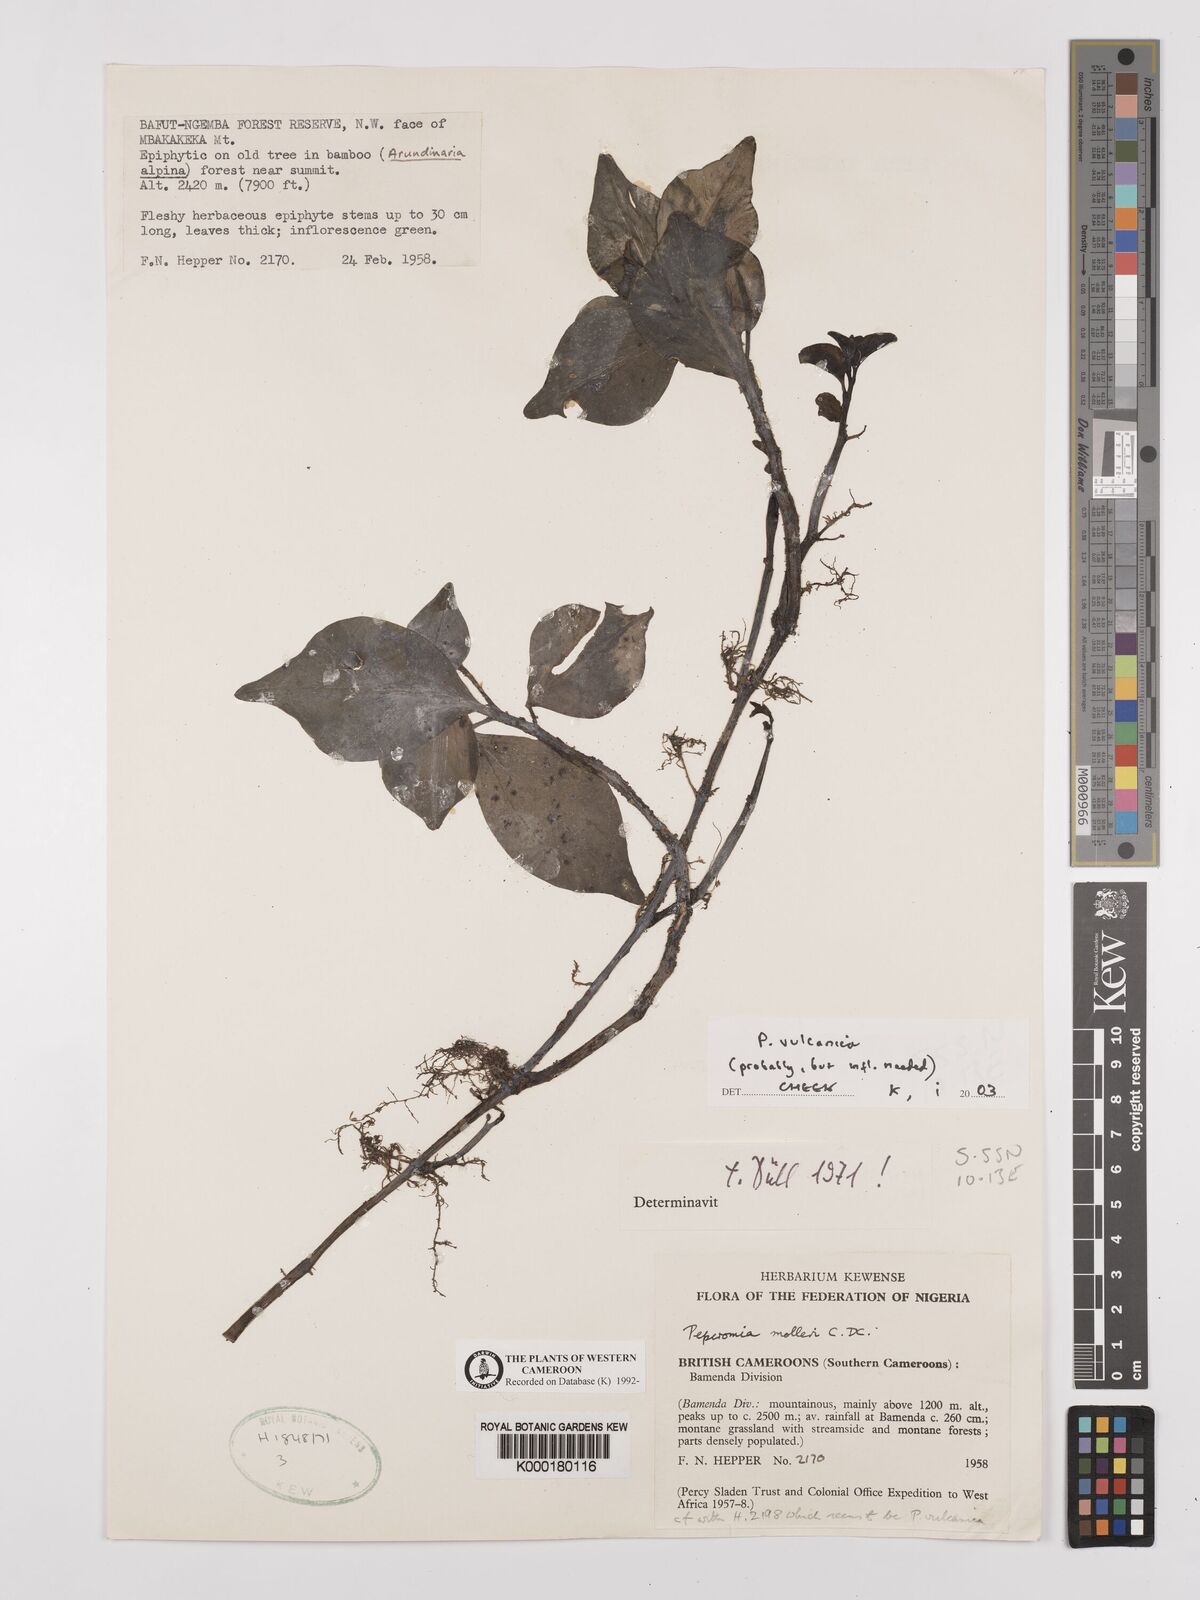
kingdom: Plantae
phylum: Tracheophyta
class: Magnoliopsida
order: Piperales
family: Piperaceae
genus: Peperomia
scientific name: Peperomia vulcanica
